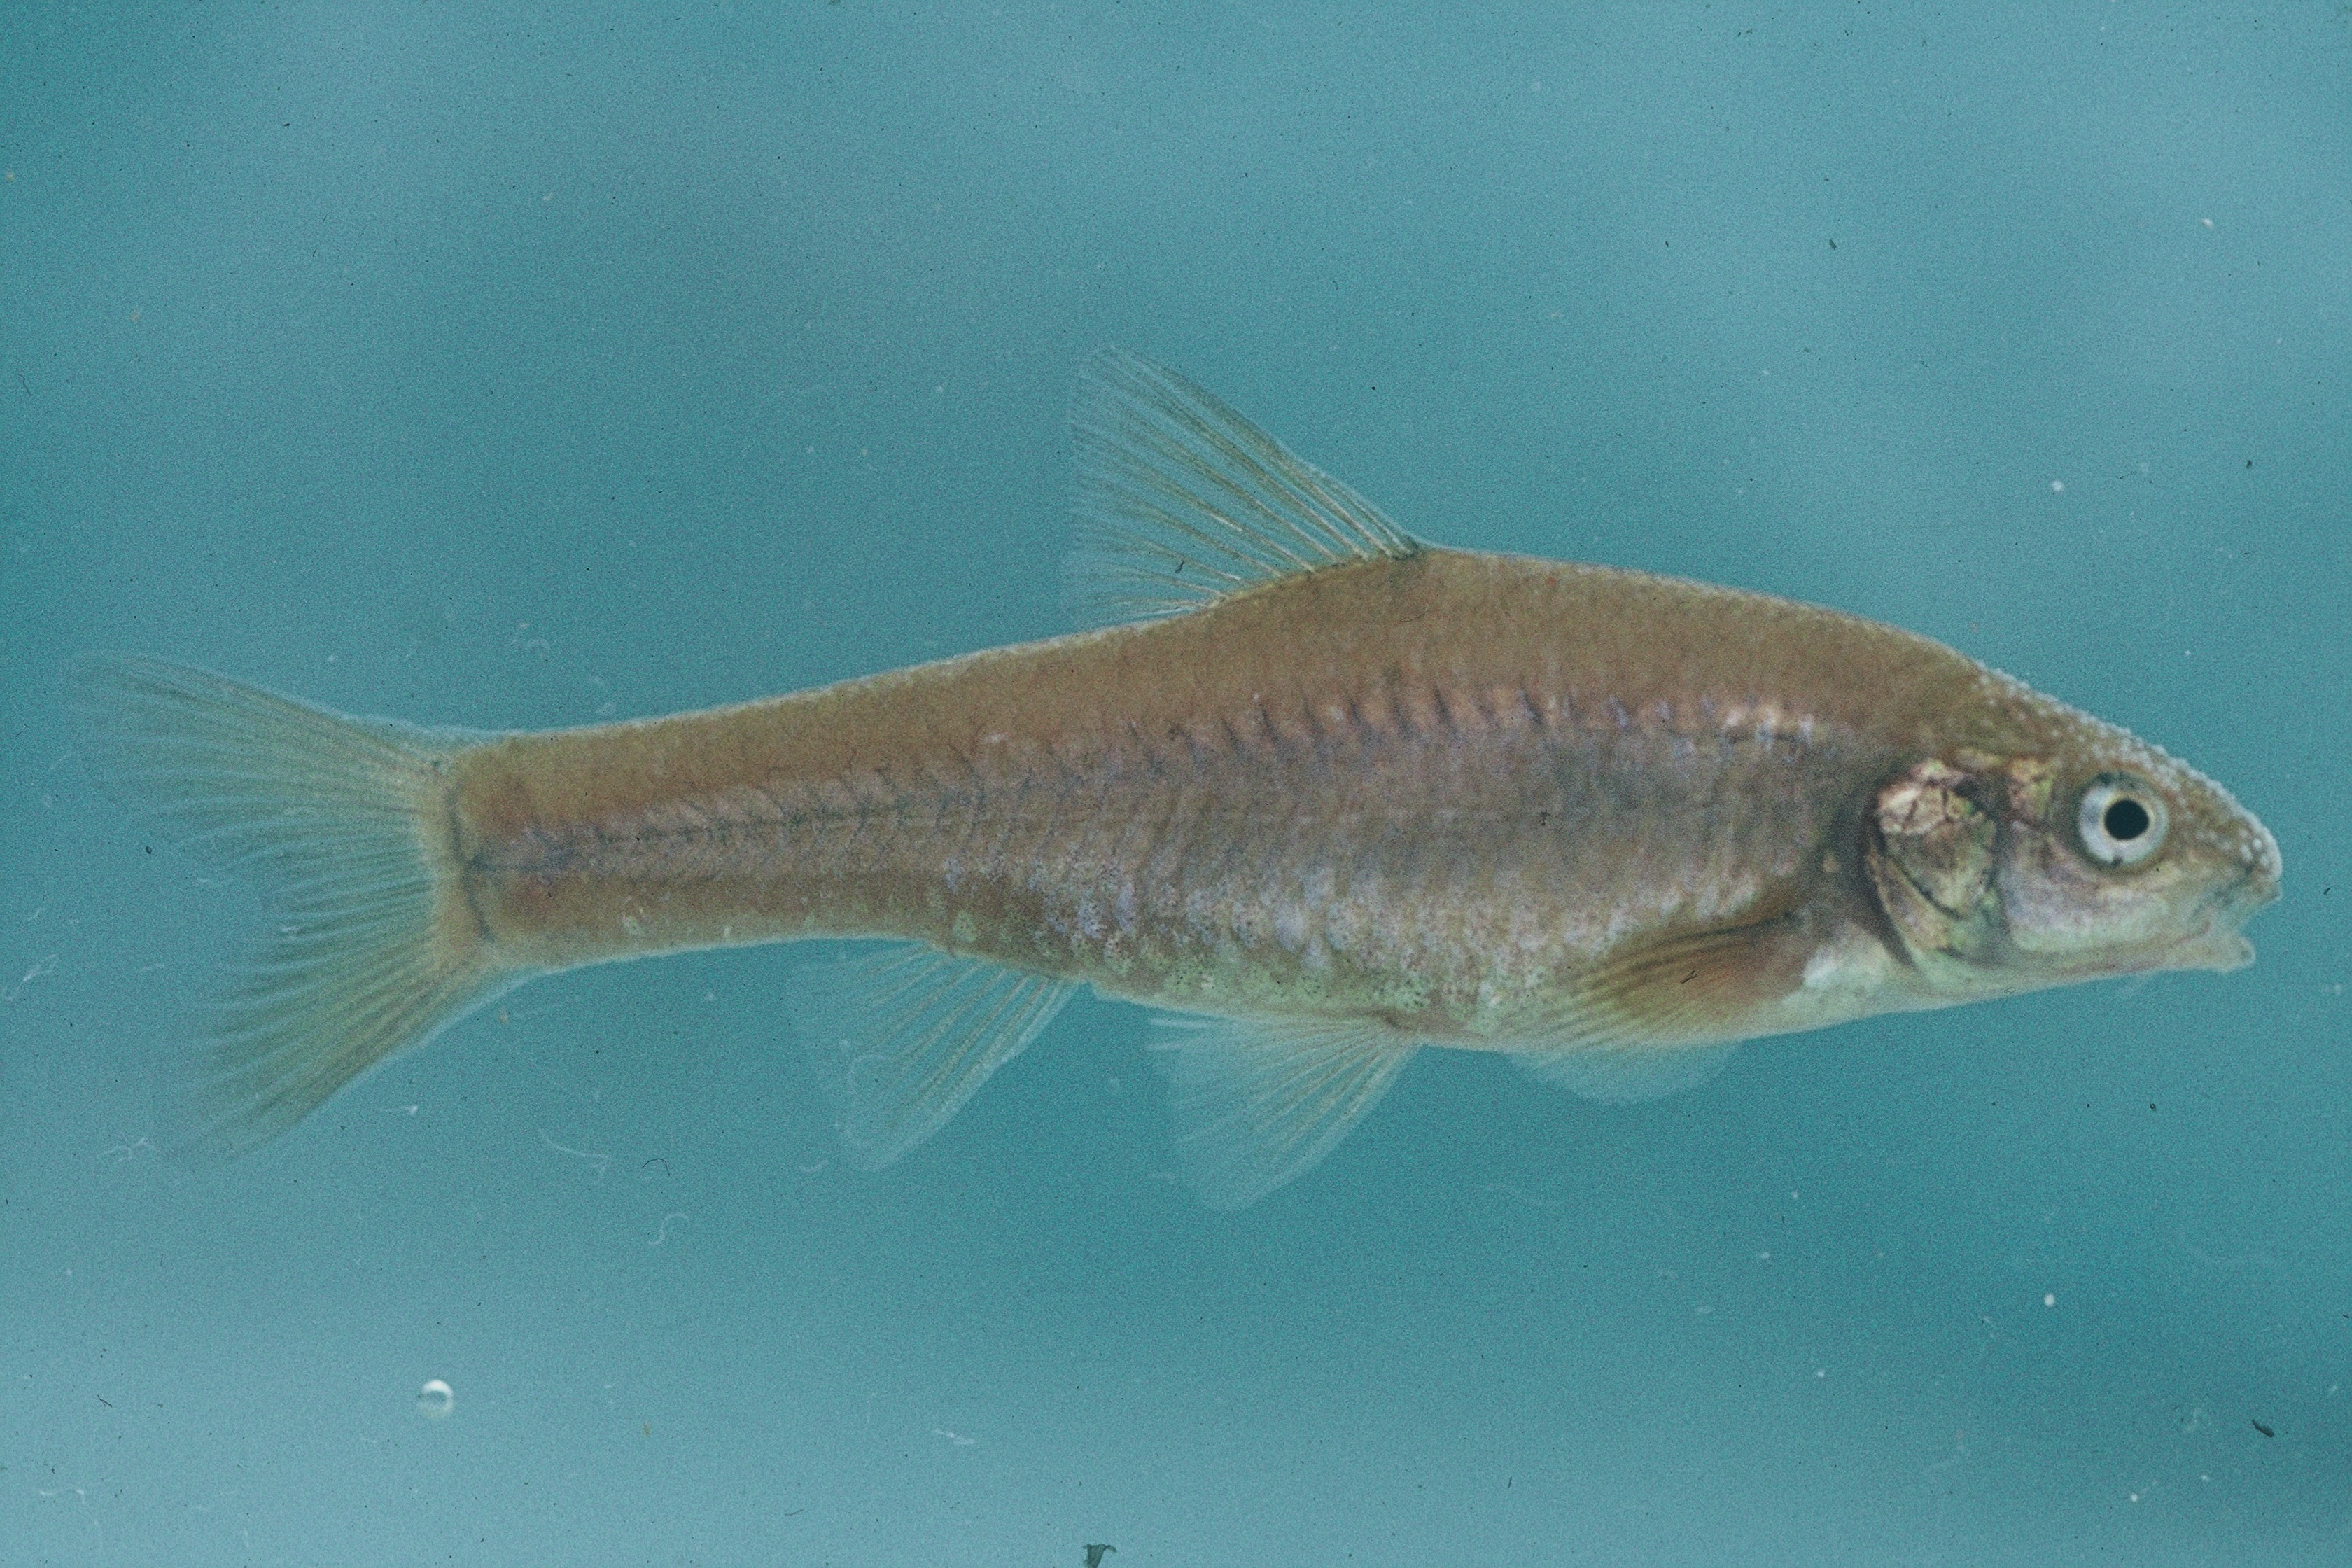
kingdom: Animalia
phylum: Chordata
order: Cypriniformes
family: Cyprinidae
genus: Enteromius
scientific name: Enteromius amatolicus
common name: Amatola barb
